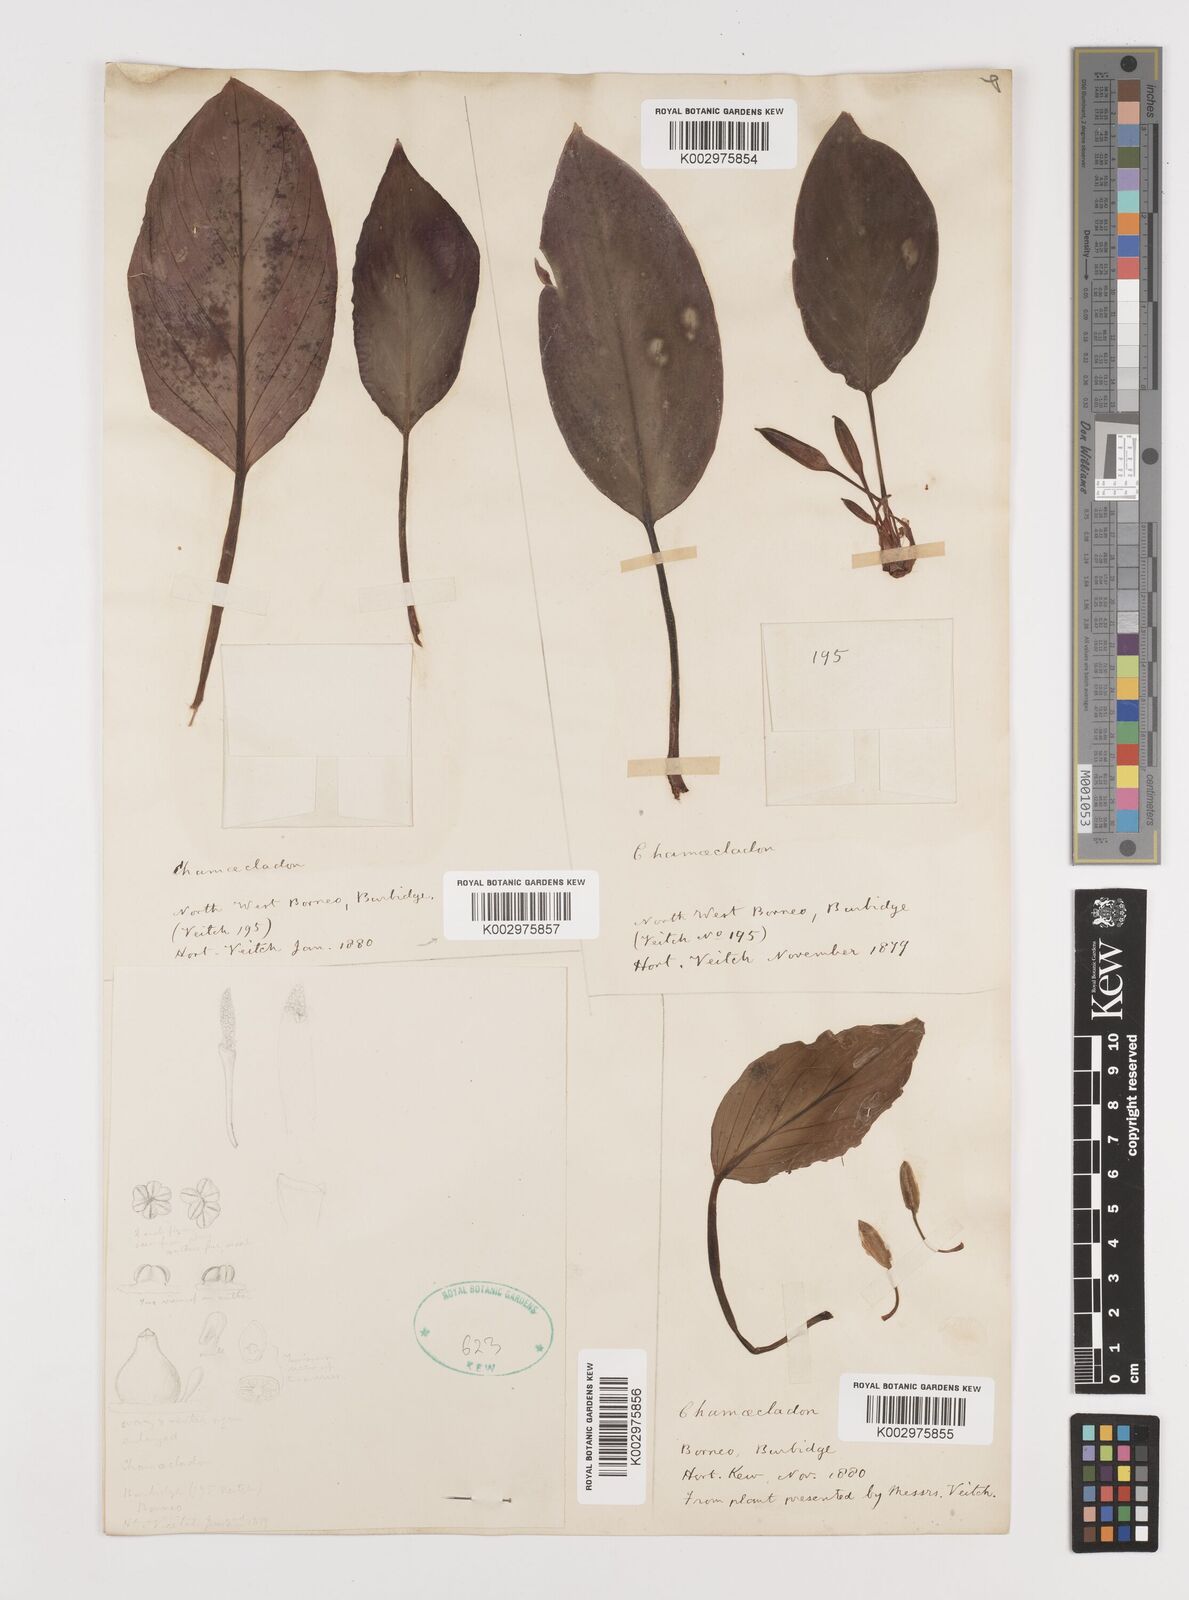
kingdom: Plantae
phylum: Tracheophyta
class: Liliopsida
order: Alismatales
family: Araceae
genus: Homalomena
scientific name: Homalomena
